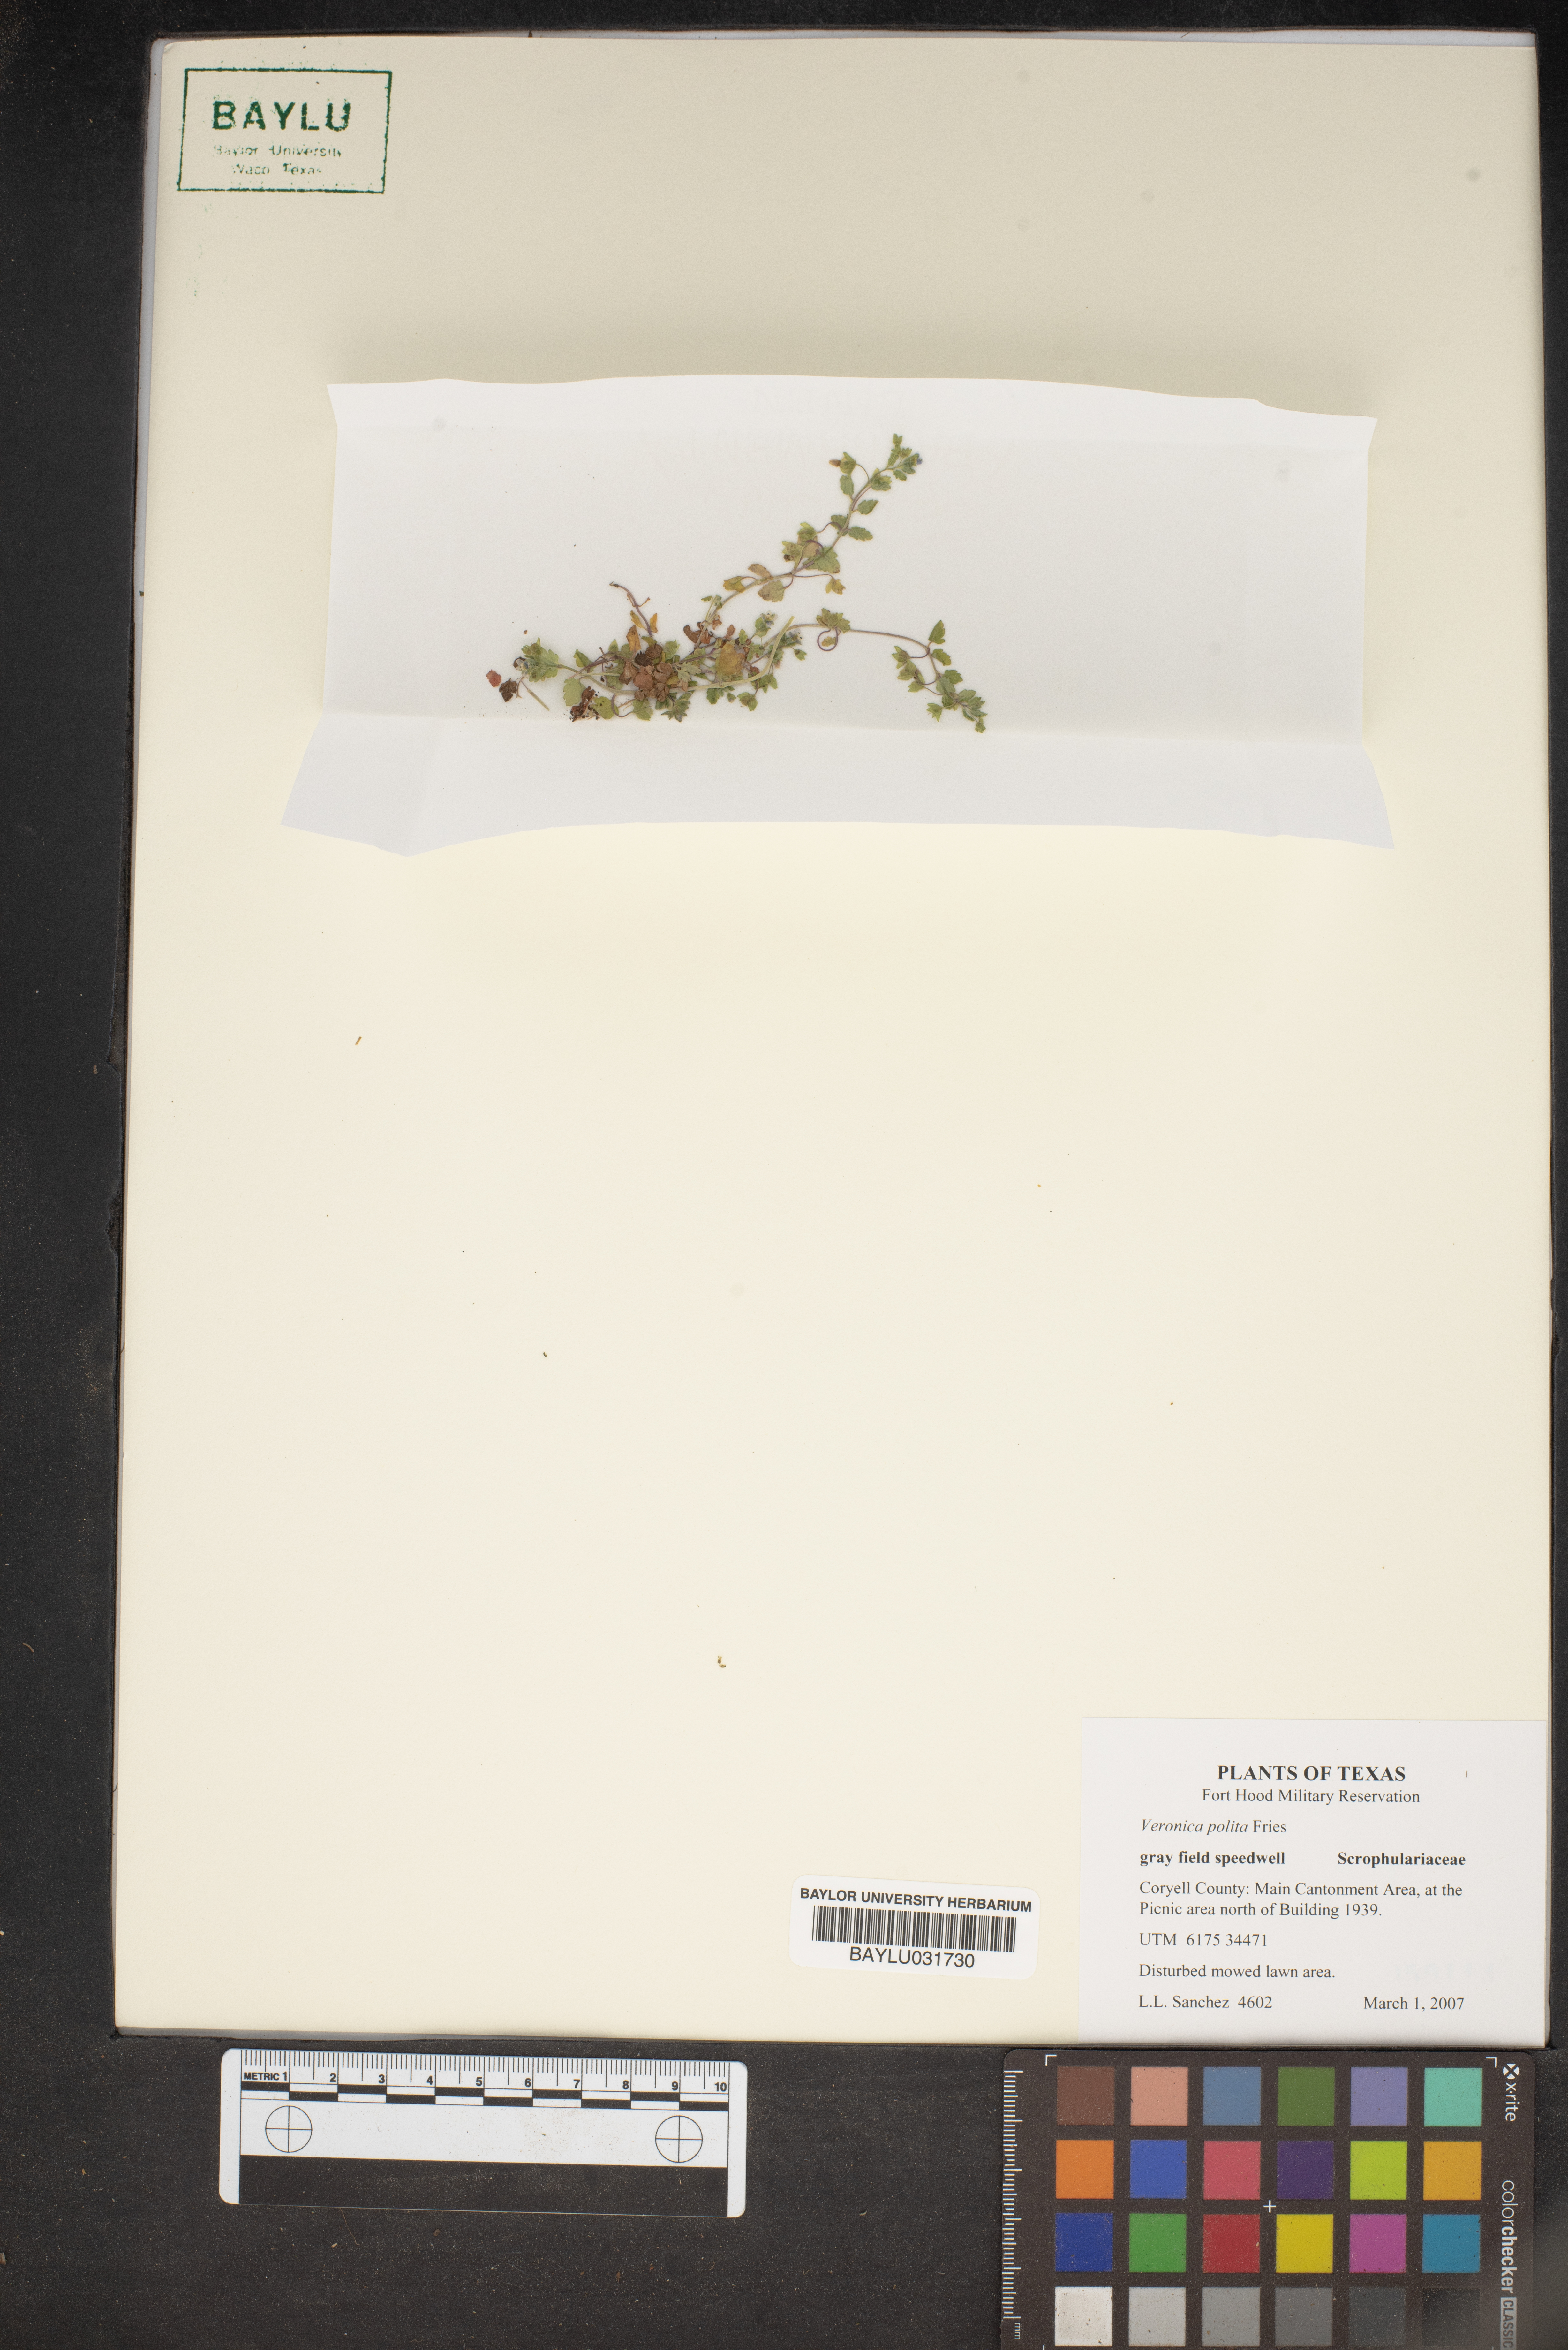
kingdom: Plantae
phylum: Tracheophyta
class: Magnoliopsida
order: Lamiales
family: Plantaginaceae
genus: Veronica
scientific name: Veronica polita
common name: Grey field-speedwell
